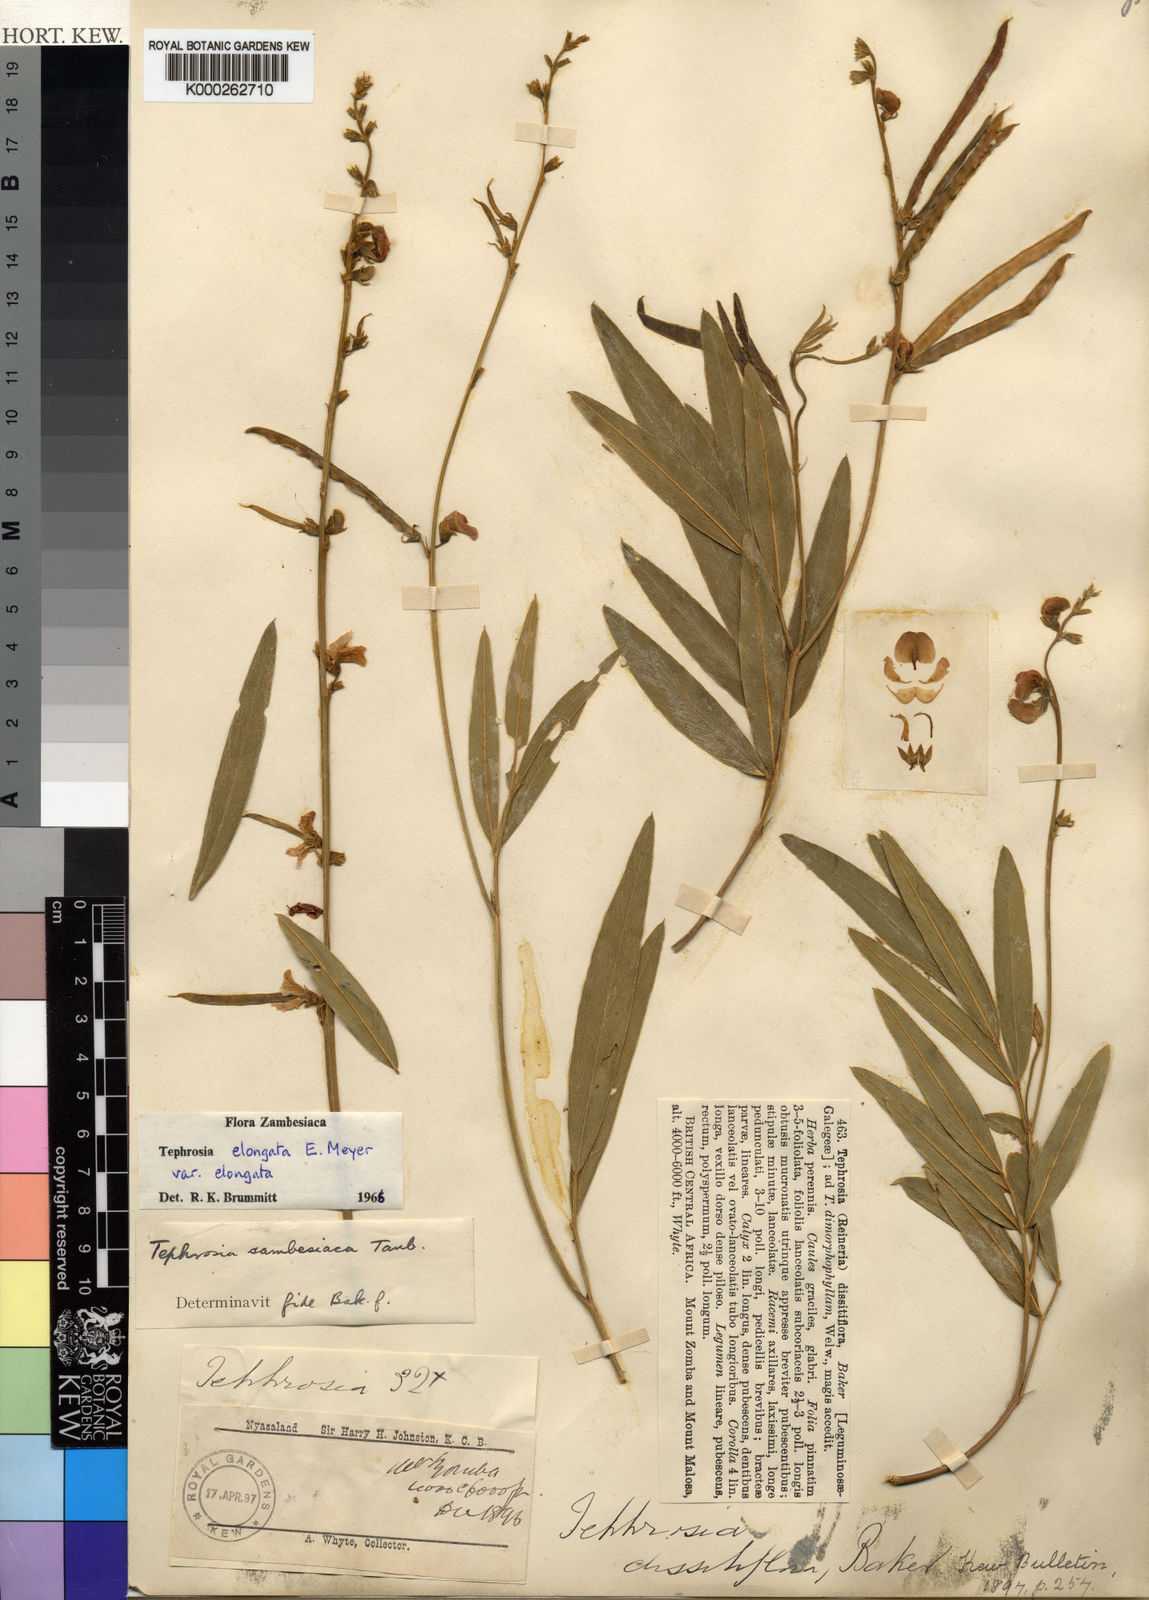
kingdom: Plantae
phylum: Tracheophyta
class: Magnoliopsida
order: Fabales
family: Fabaceae
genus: Tephrosia
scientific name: Tephrosia elongata
